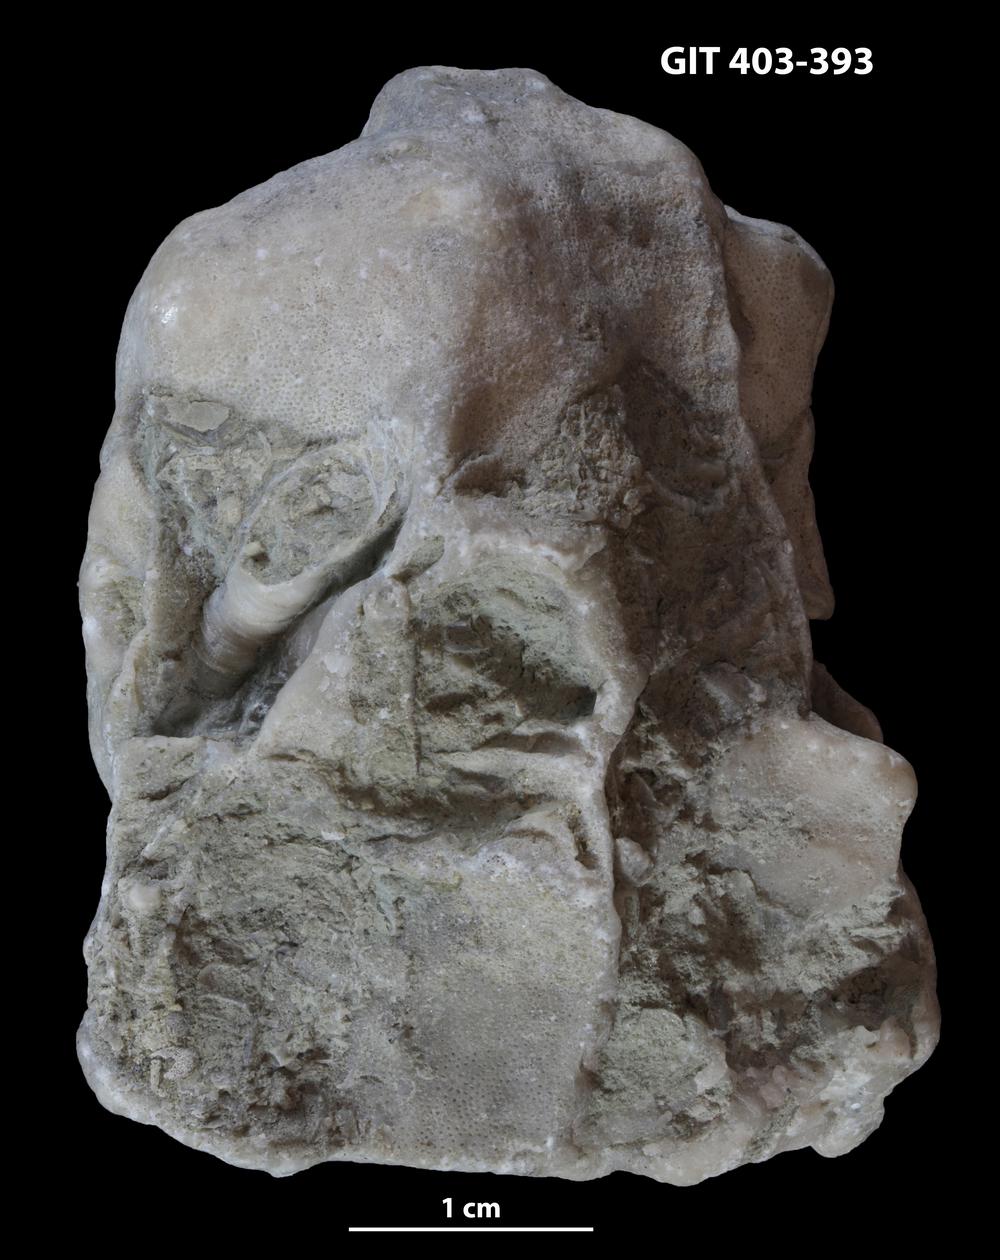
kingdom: Animalia
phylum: Bryozoa
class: Stenolaemata
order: Cystoporida
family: Fistuliporidae
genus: Fistulipora
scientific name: Fistulipora przhidolensis
